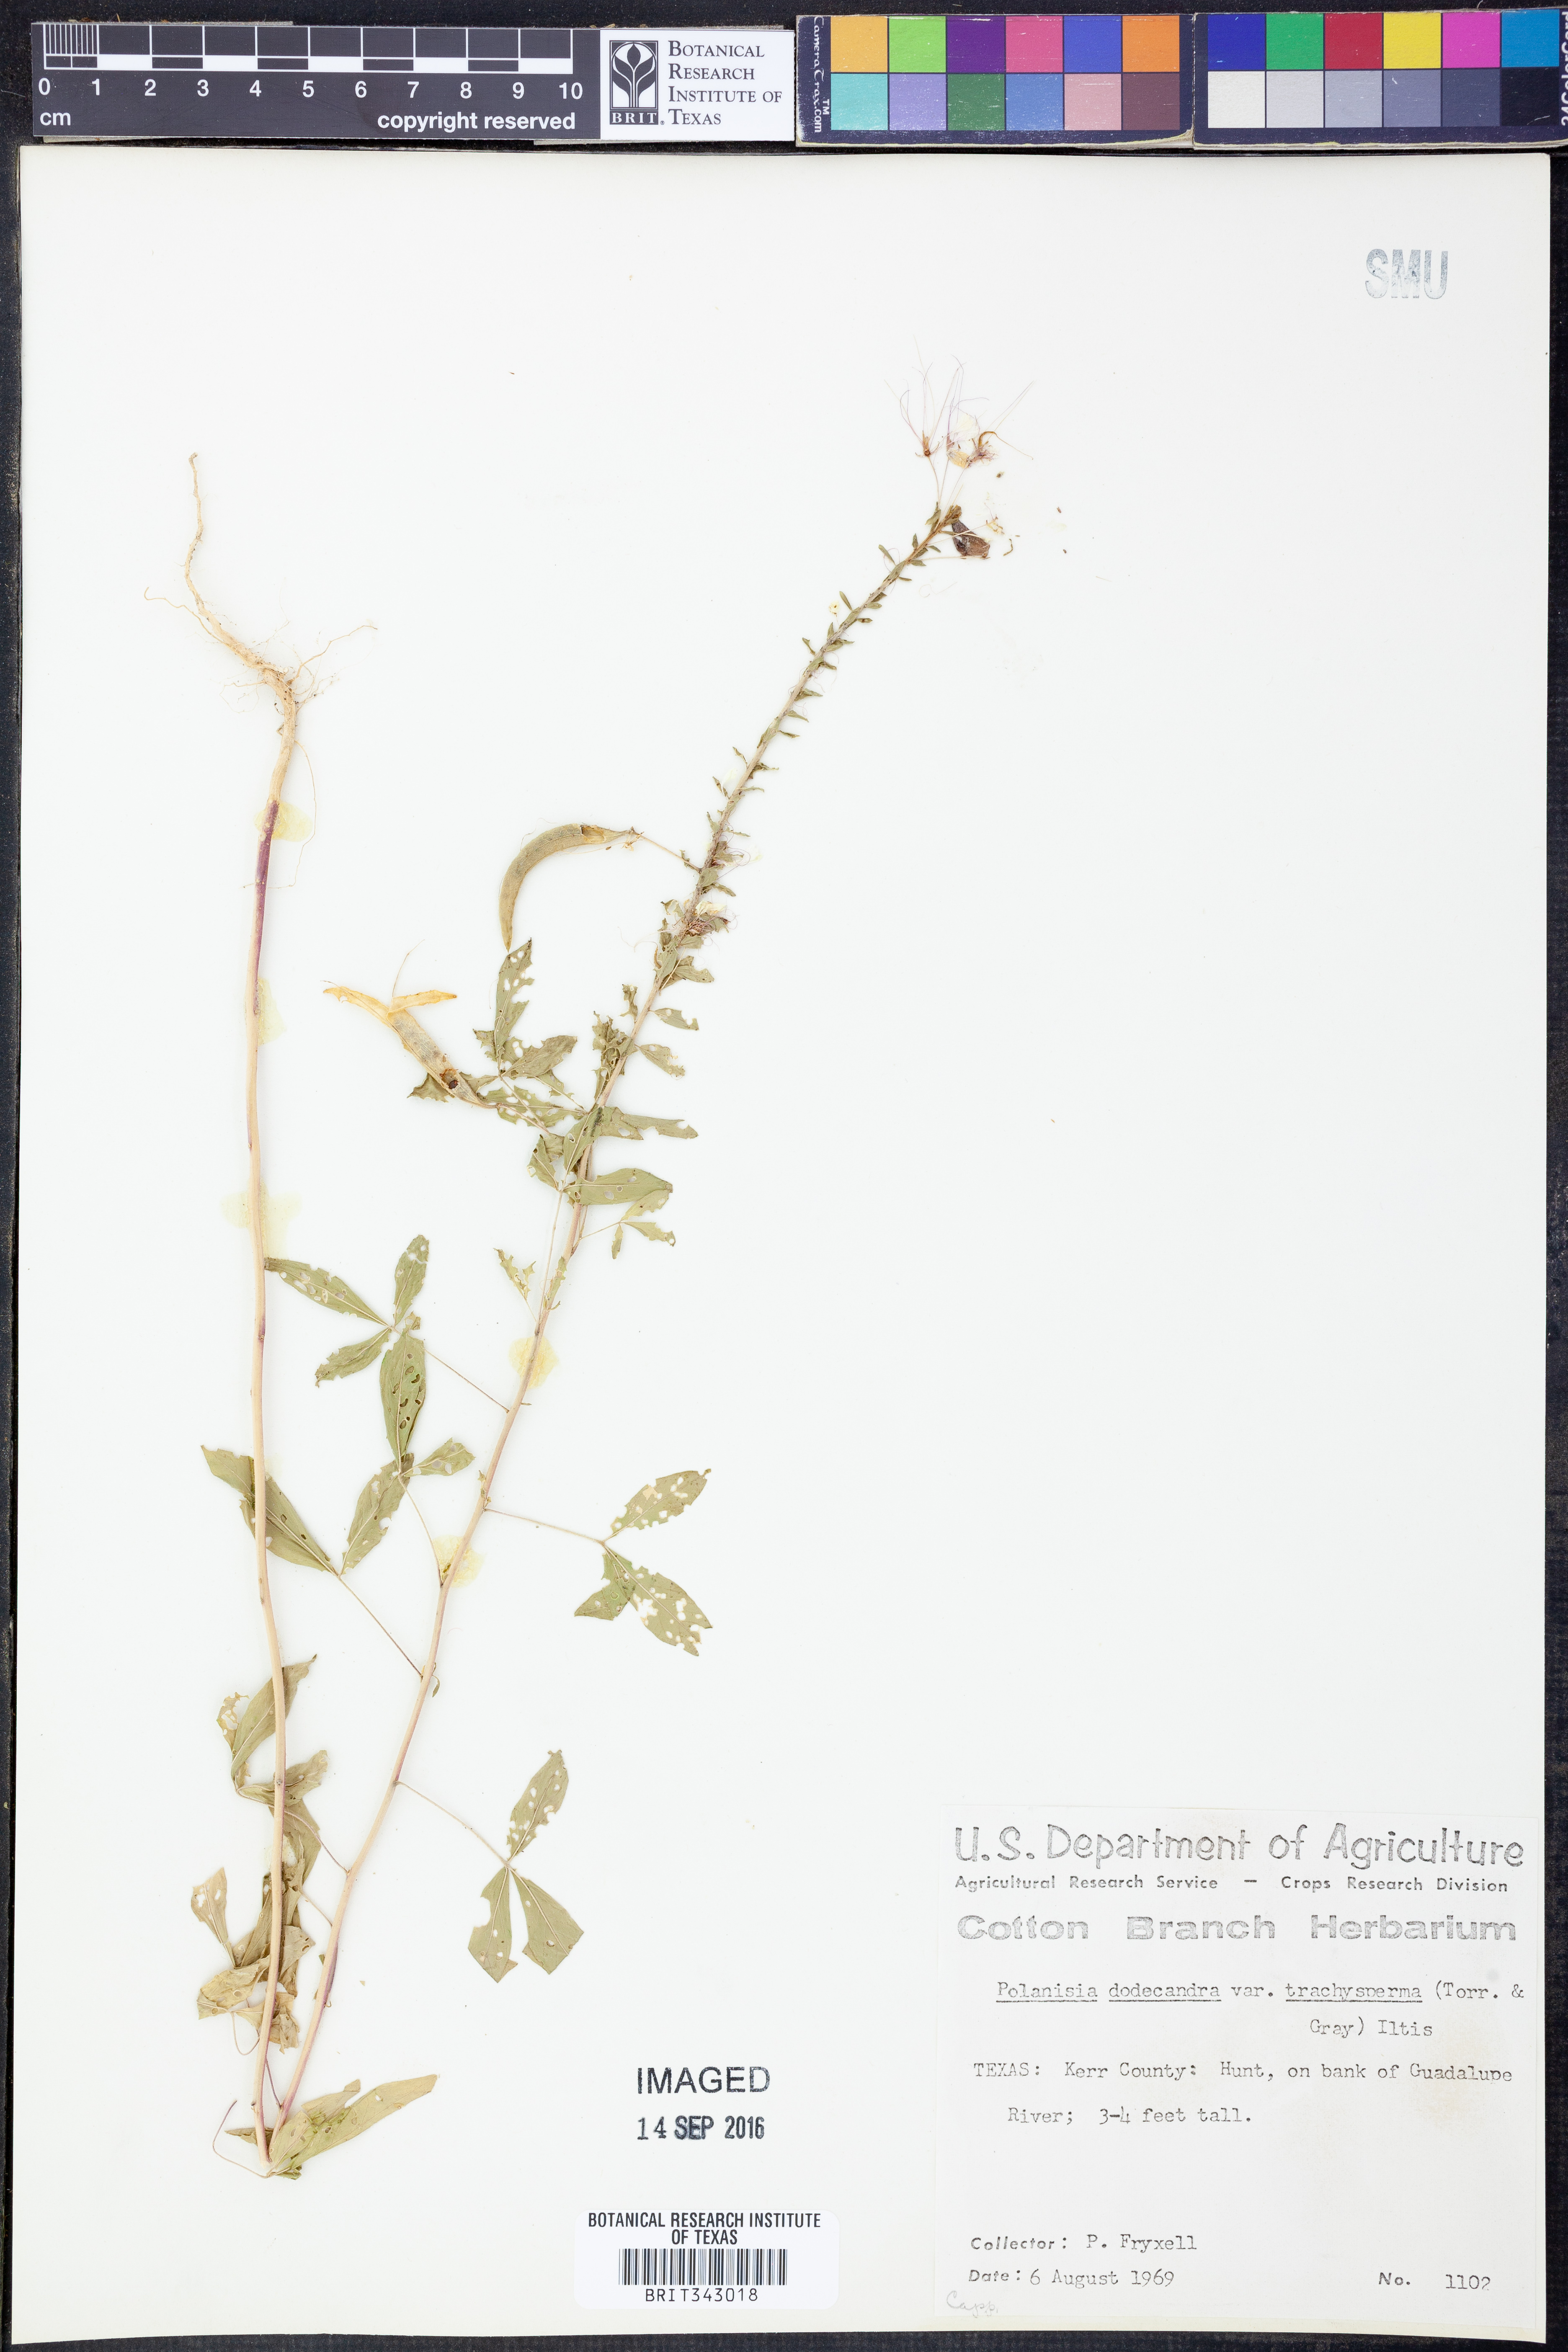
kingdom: Plantae
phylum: Tracheophyta
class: Magnoliopsida
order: Brassicales
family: Cleomaceae
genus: Polanisia
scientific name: Polanisia trachysperma
